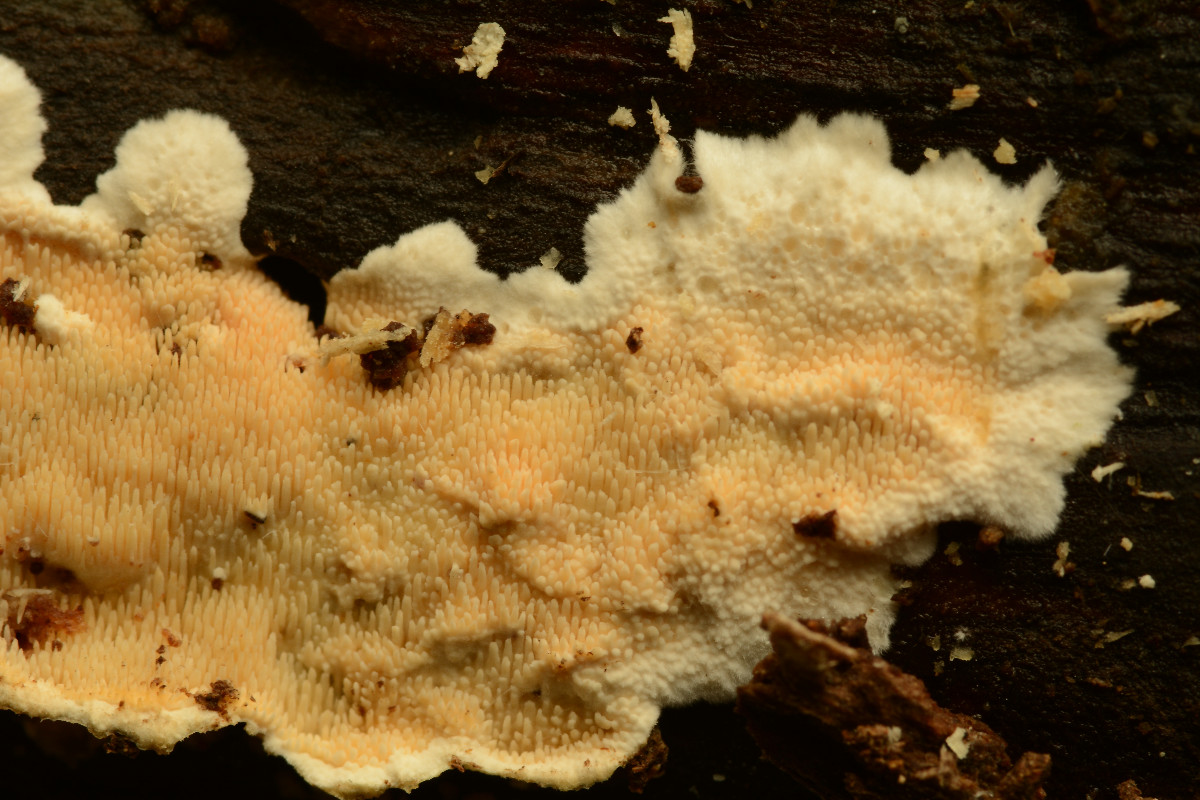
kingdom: Fungi
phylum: Basidiomycota
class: Agaricomycetes
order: Polyporales
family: Steccherinaceae
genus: Steccherinum
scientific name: Steccherinum ochraceum
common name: almindelig skønpig
